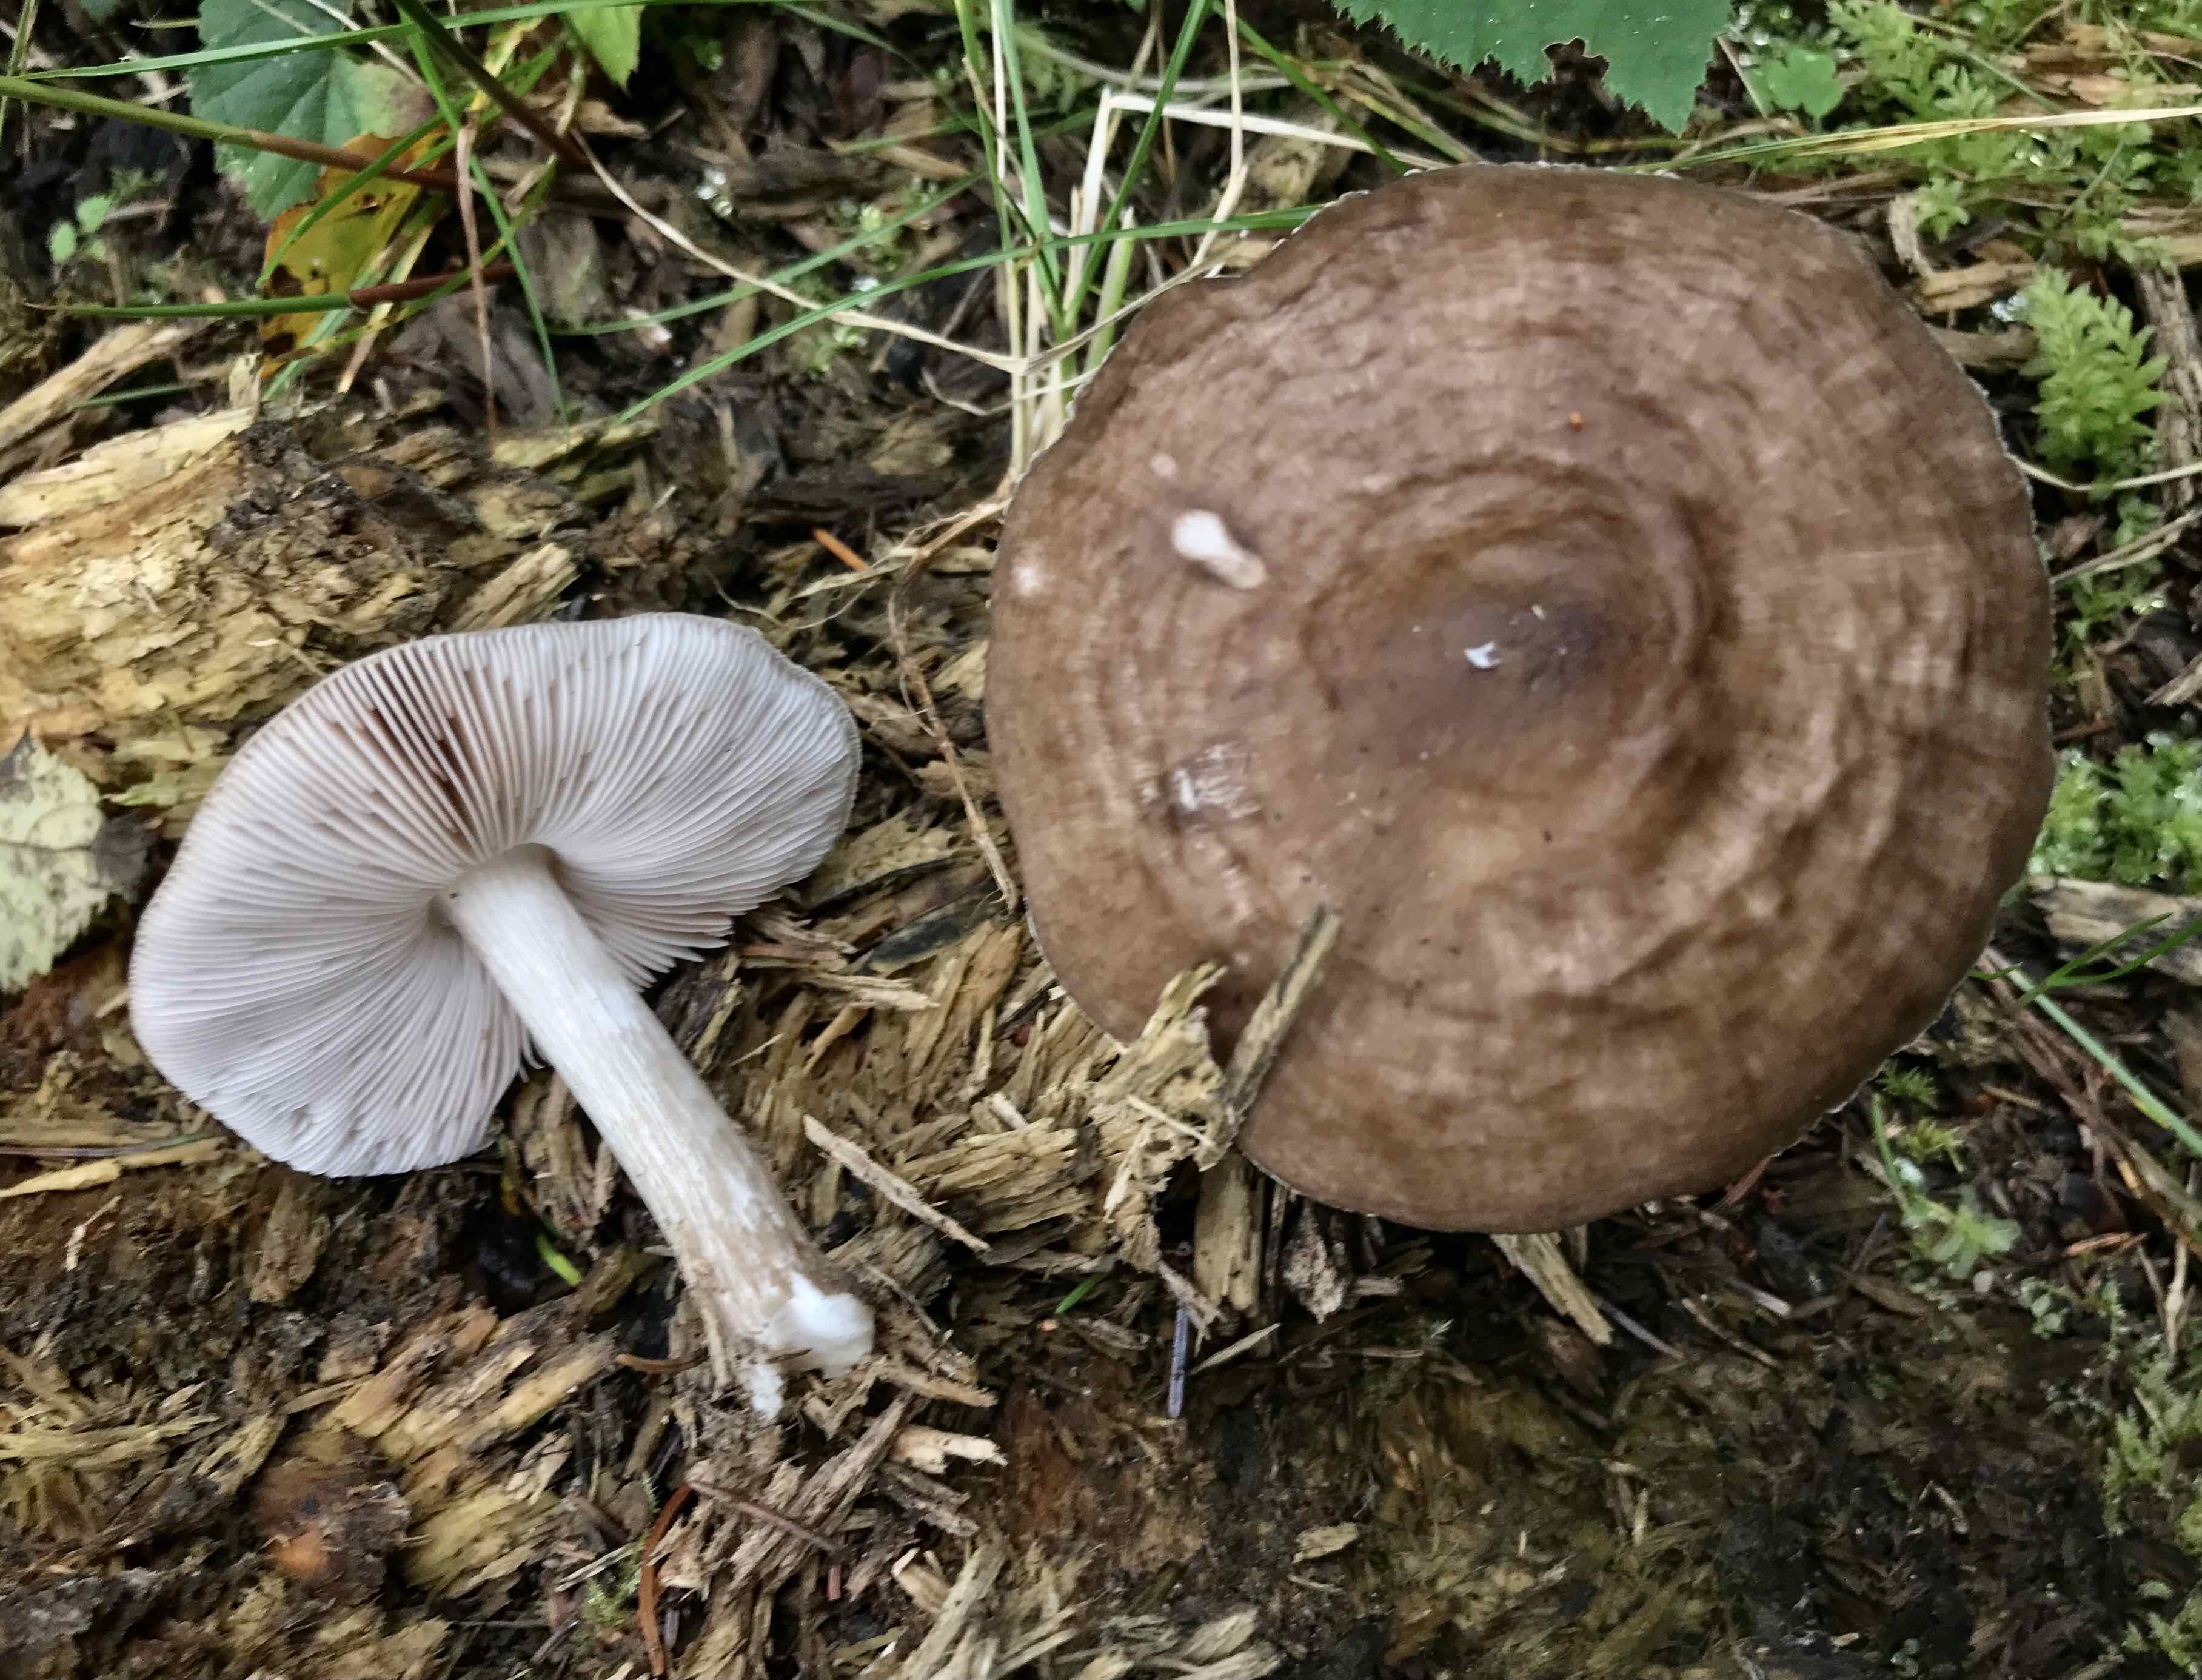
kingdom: Fungi
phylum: Basidiomycota
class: Agaricomycetes
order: Agaricales
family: Pluteaceae
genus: Pluteus
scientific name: Pluteus cervinus
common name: sodfarvet skærmhat
